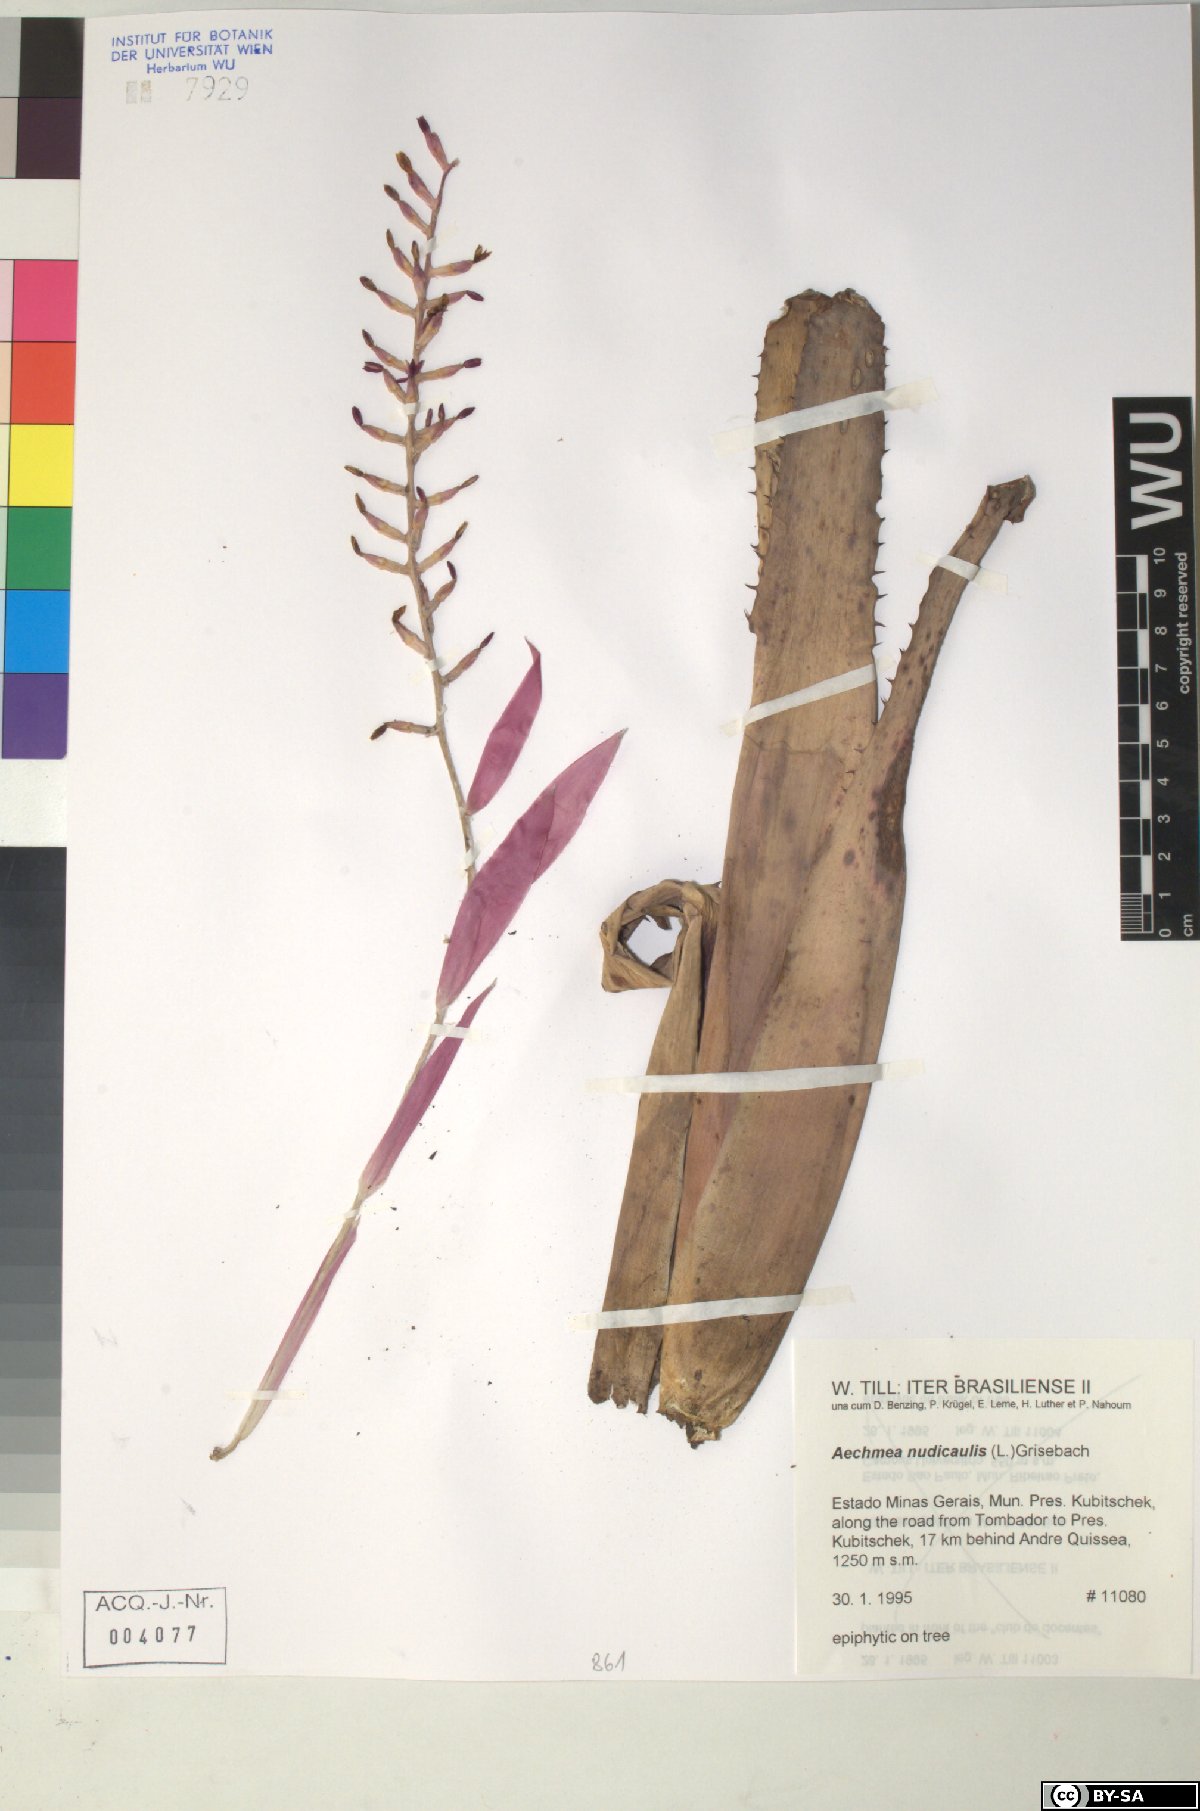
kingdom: Plantae
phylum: Tracheophyta
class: Liliopsida
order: Poales
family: Bromeliaceae
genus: Aechmea
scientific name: Aechmea nudicaulis
